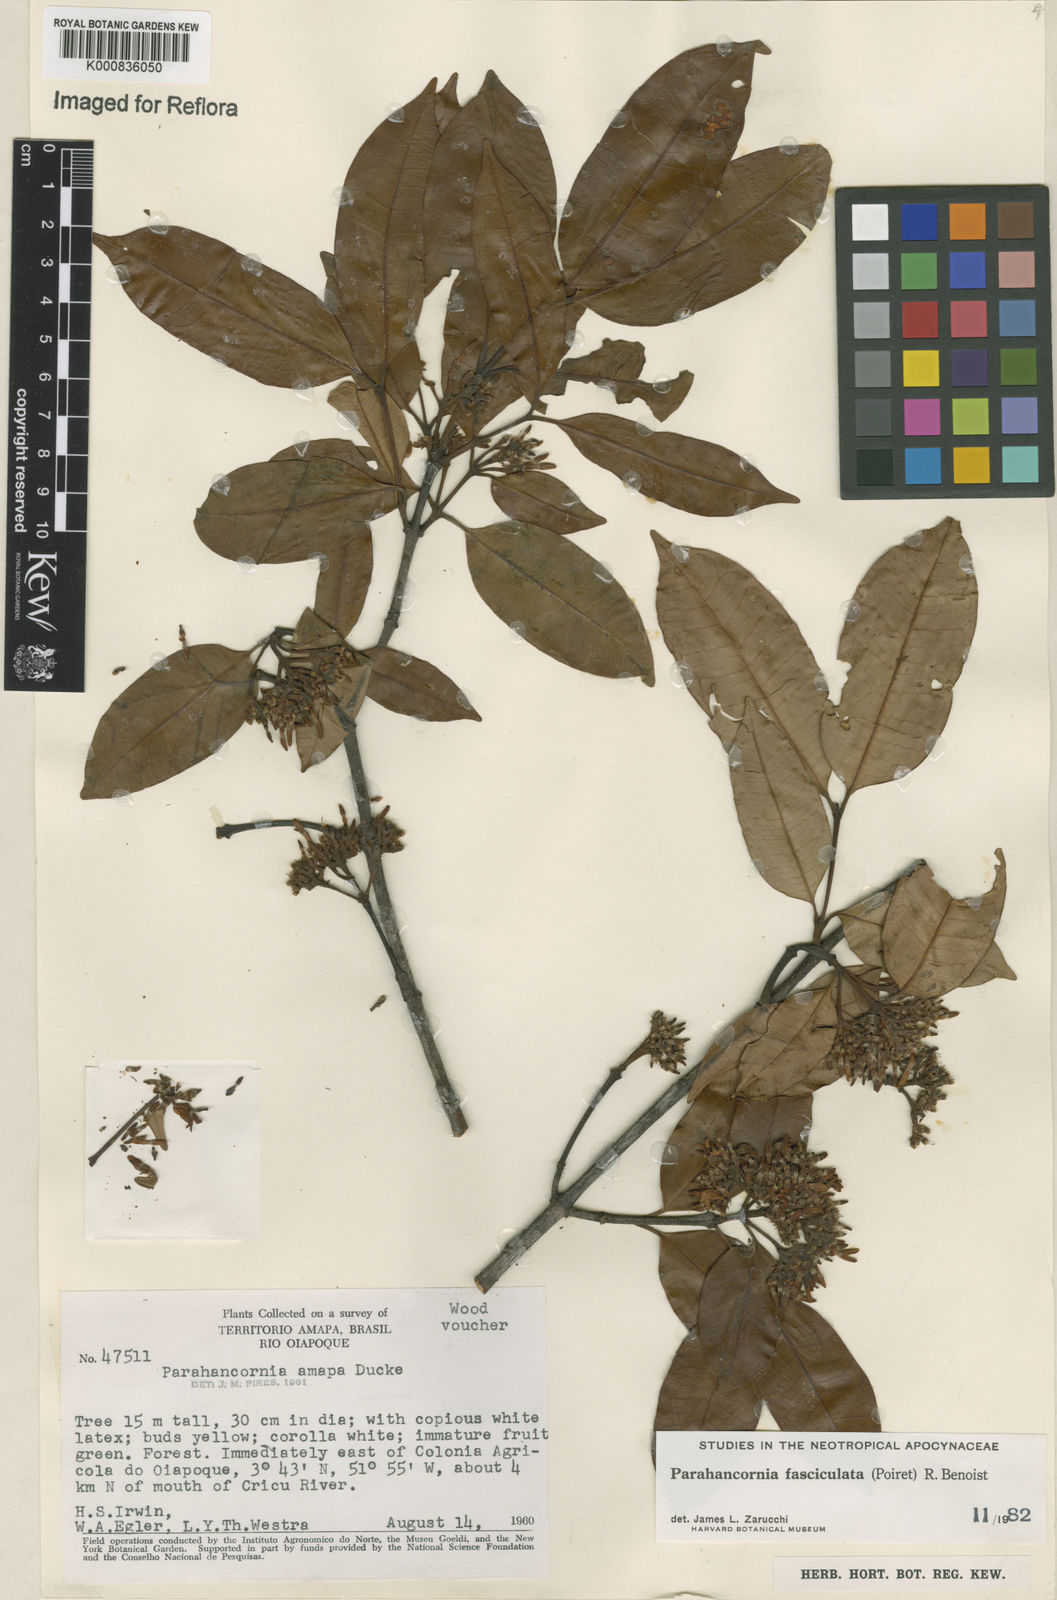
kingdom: Plantae
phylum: Tracheophyta
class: Magnoliopsida
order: Gentianales
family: Apocynaceae
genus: Parahancornia
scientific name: Parahancornia fasciculata
